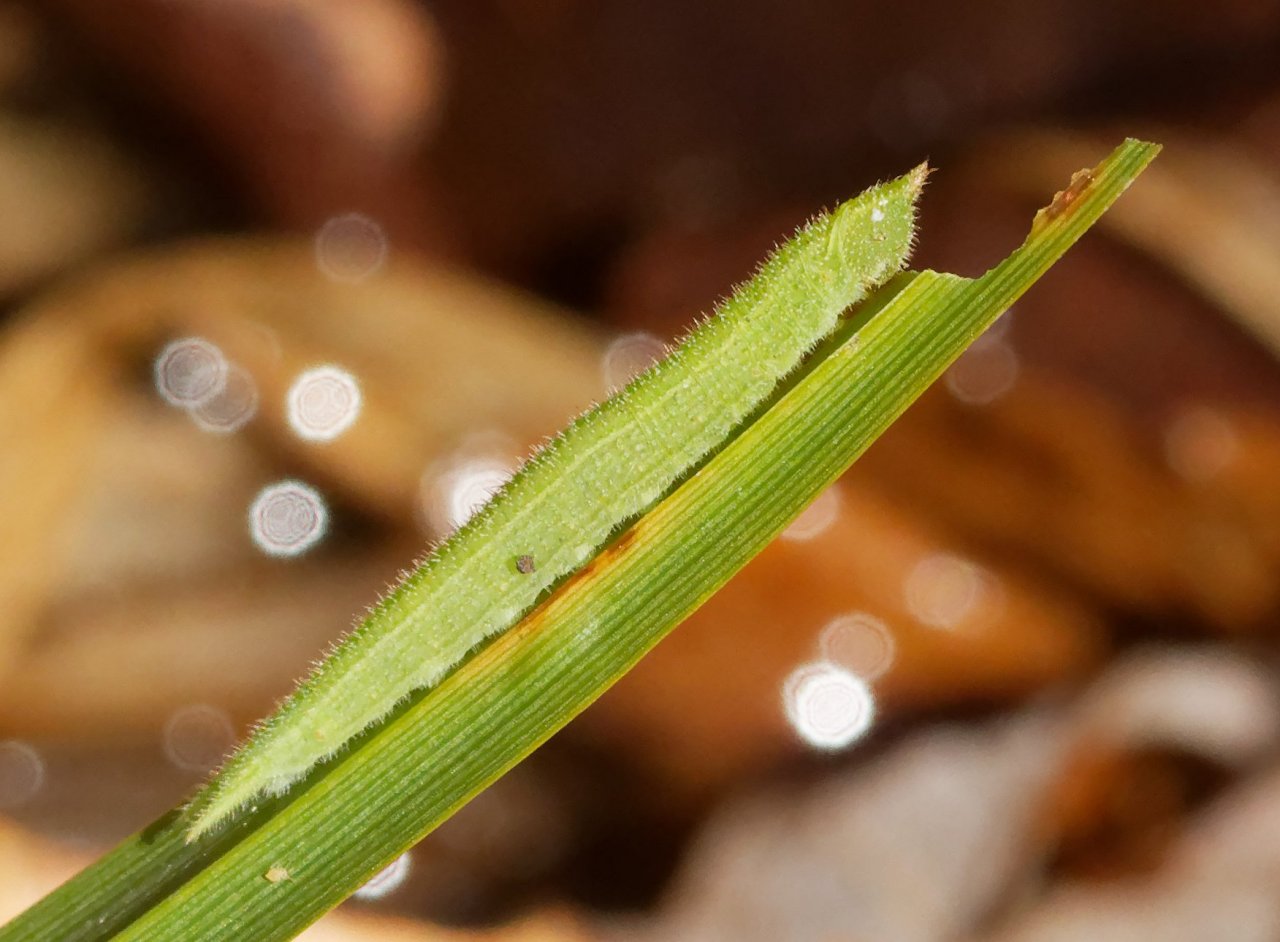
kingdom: Animalia
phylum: Arthropoda
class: Insecta
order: Lepidoptera
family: Nymphalidae
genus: Lethe
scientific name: Lethe anthedon
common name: Northern Pearly-Eye
